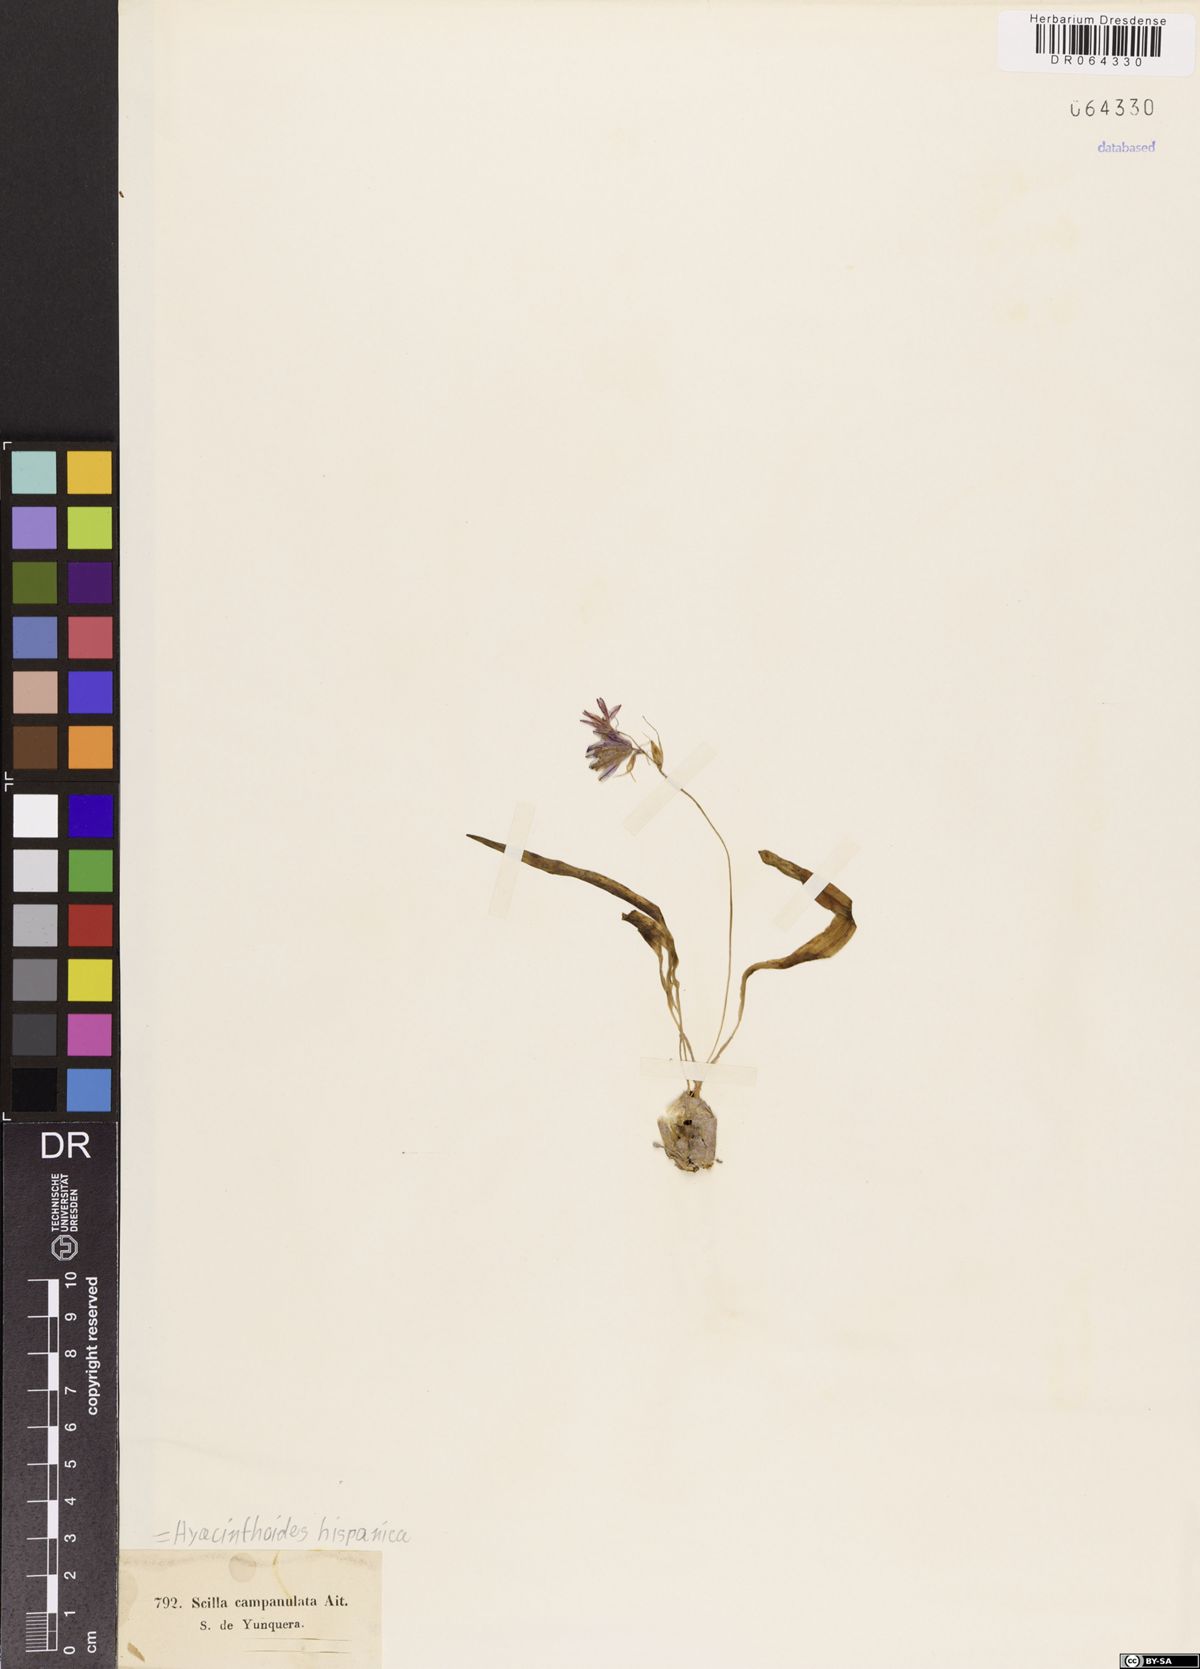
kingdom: Plantae
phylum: Tracheophyta
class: Liliopsida
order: Asparagales
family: Asparagaceae
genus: Hyacinthoides
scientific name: Hyacinthoides hispanica
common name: Spanish bluebell
